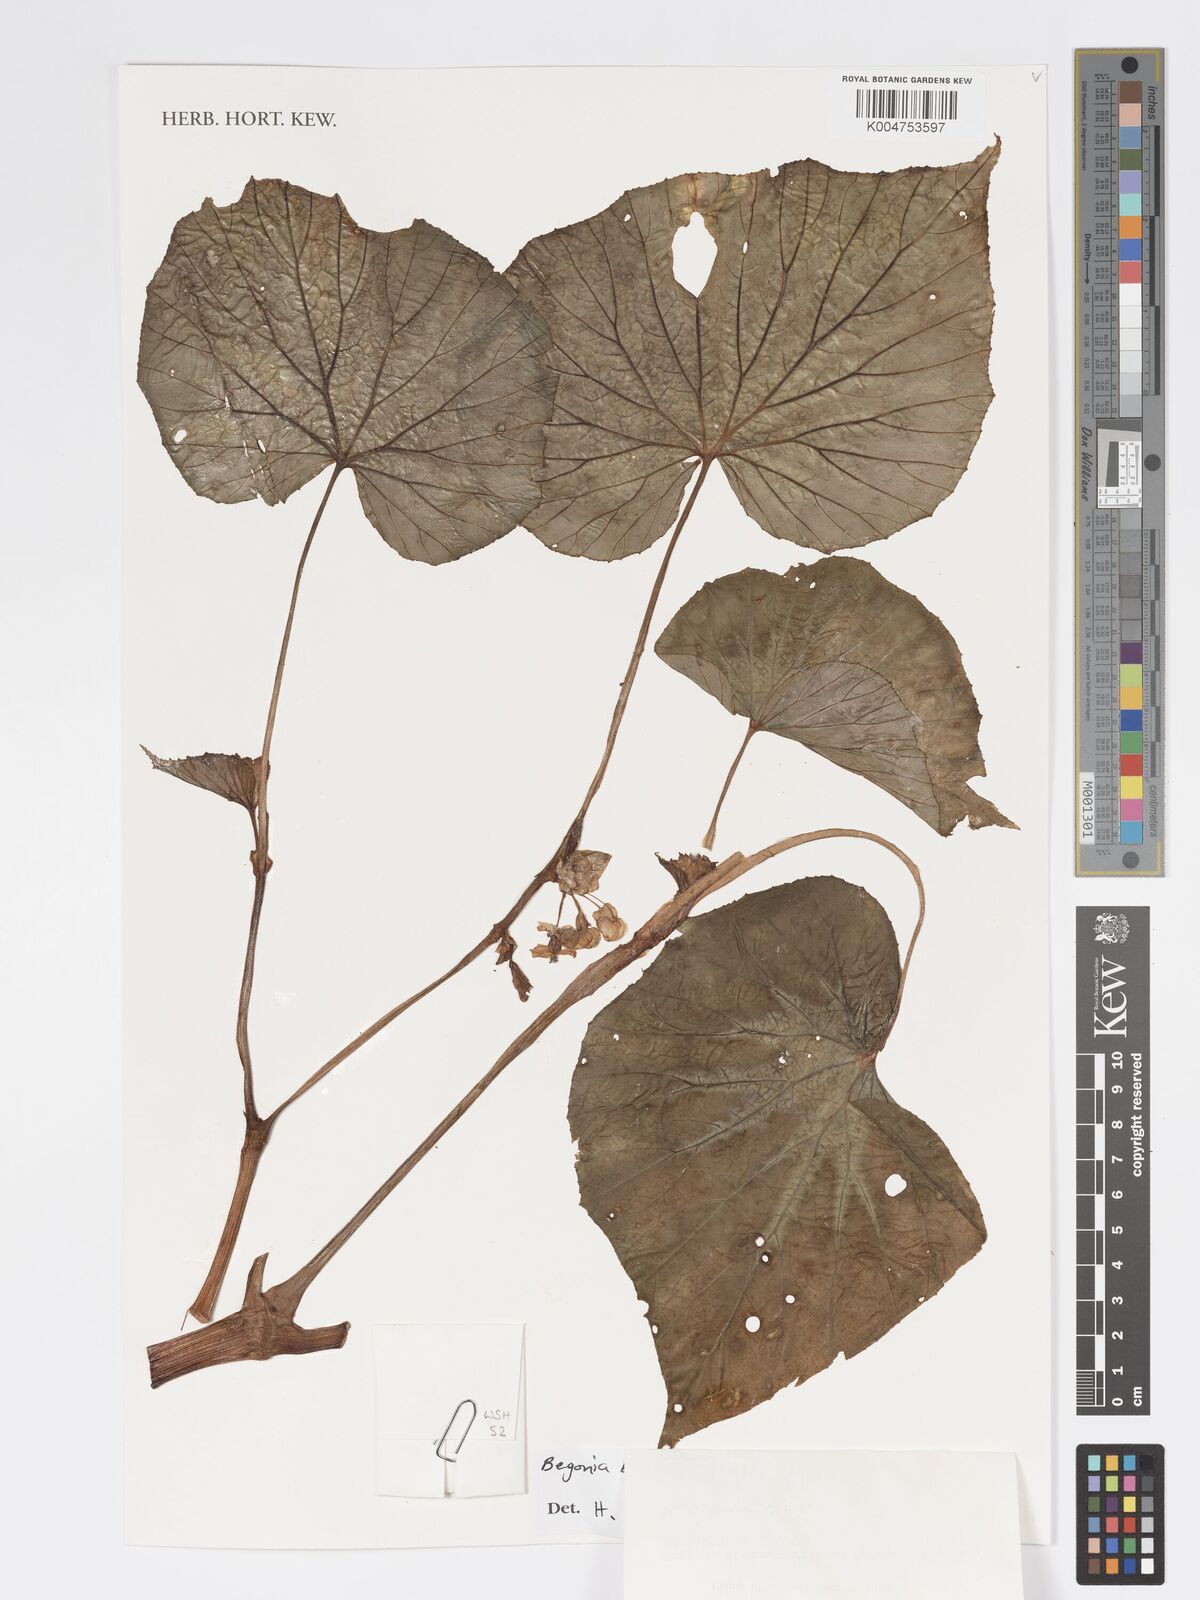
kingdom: Plantae
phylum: Tracheophyta
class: Magnoliopsida
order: Cucurbitales
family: Begoniaceae
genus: Begonia
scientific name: Begonia brachybotrys
